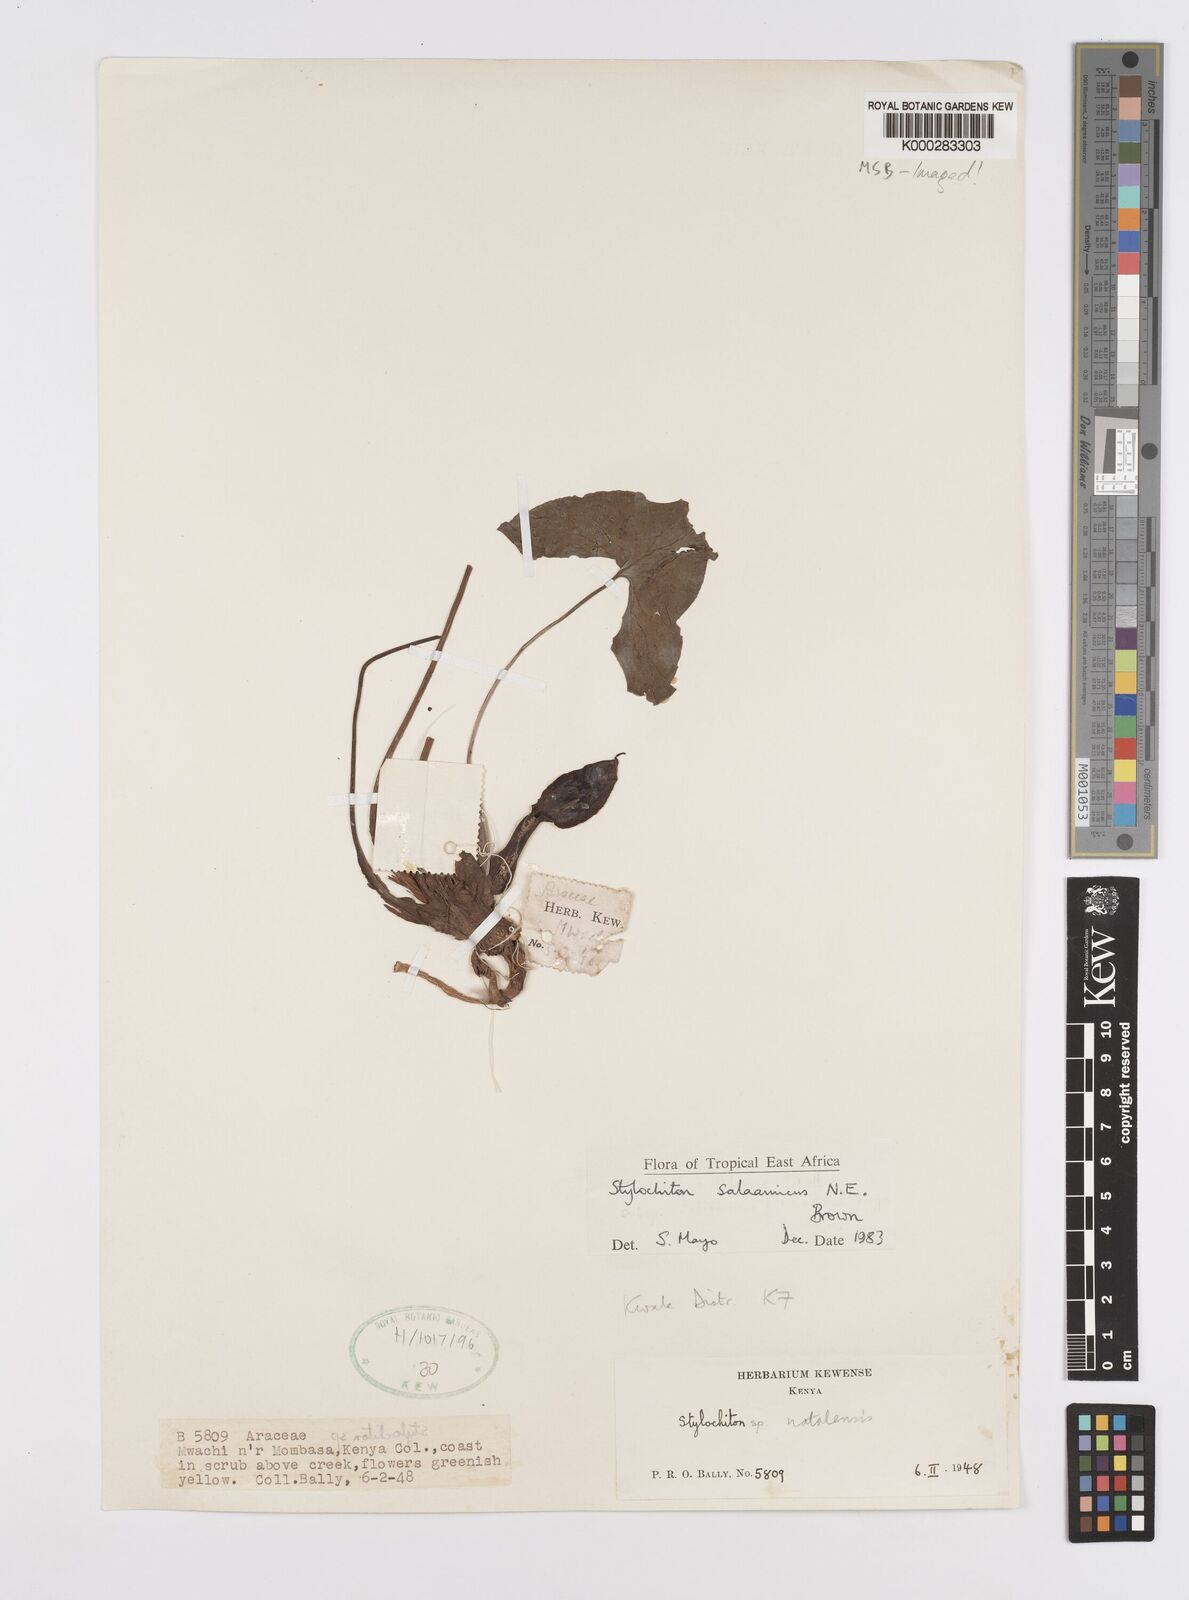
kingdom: Plantae
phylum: Tracheophyta
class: Liliopsida
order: Alismatales
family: Araceae
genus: Stylochaeton
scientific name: Stylochaeton salaamicum
